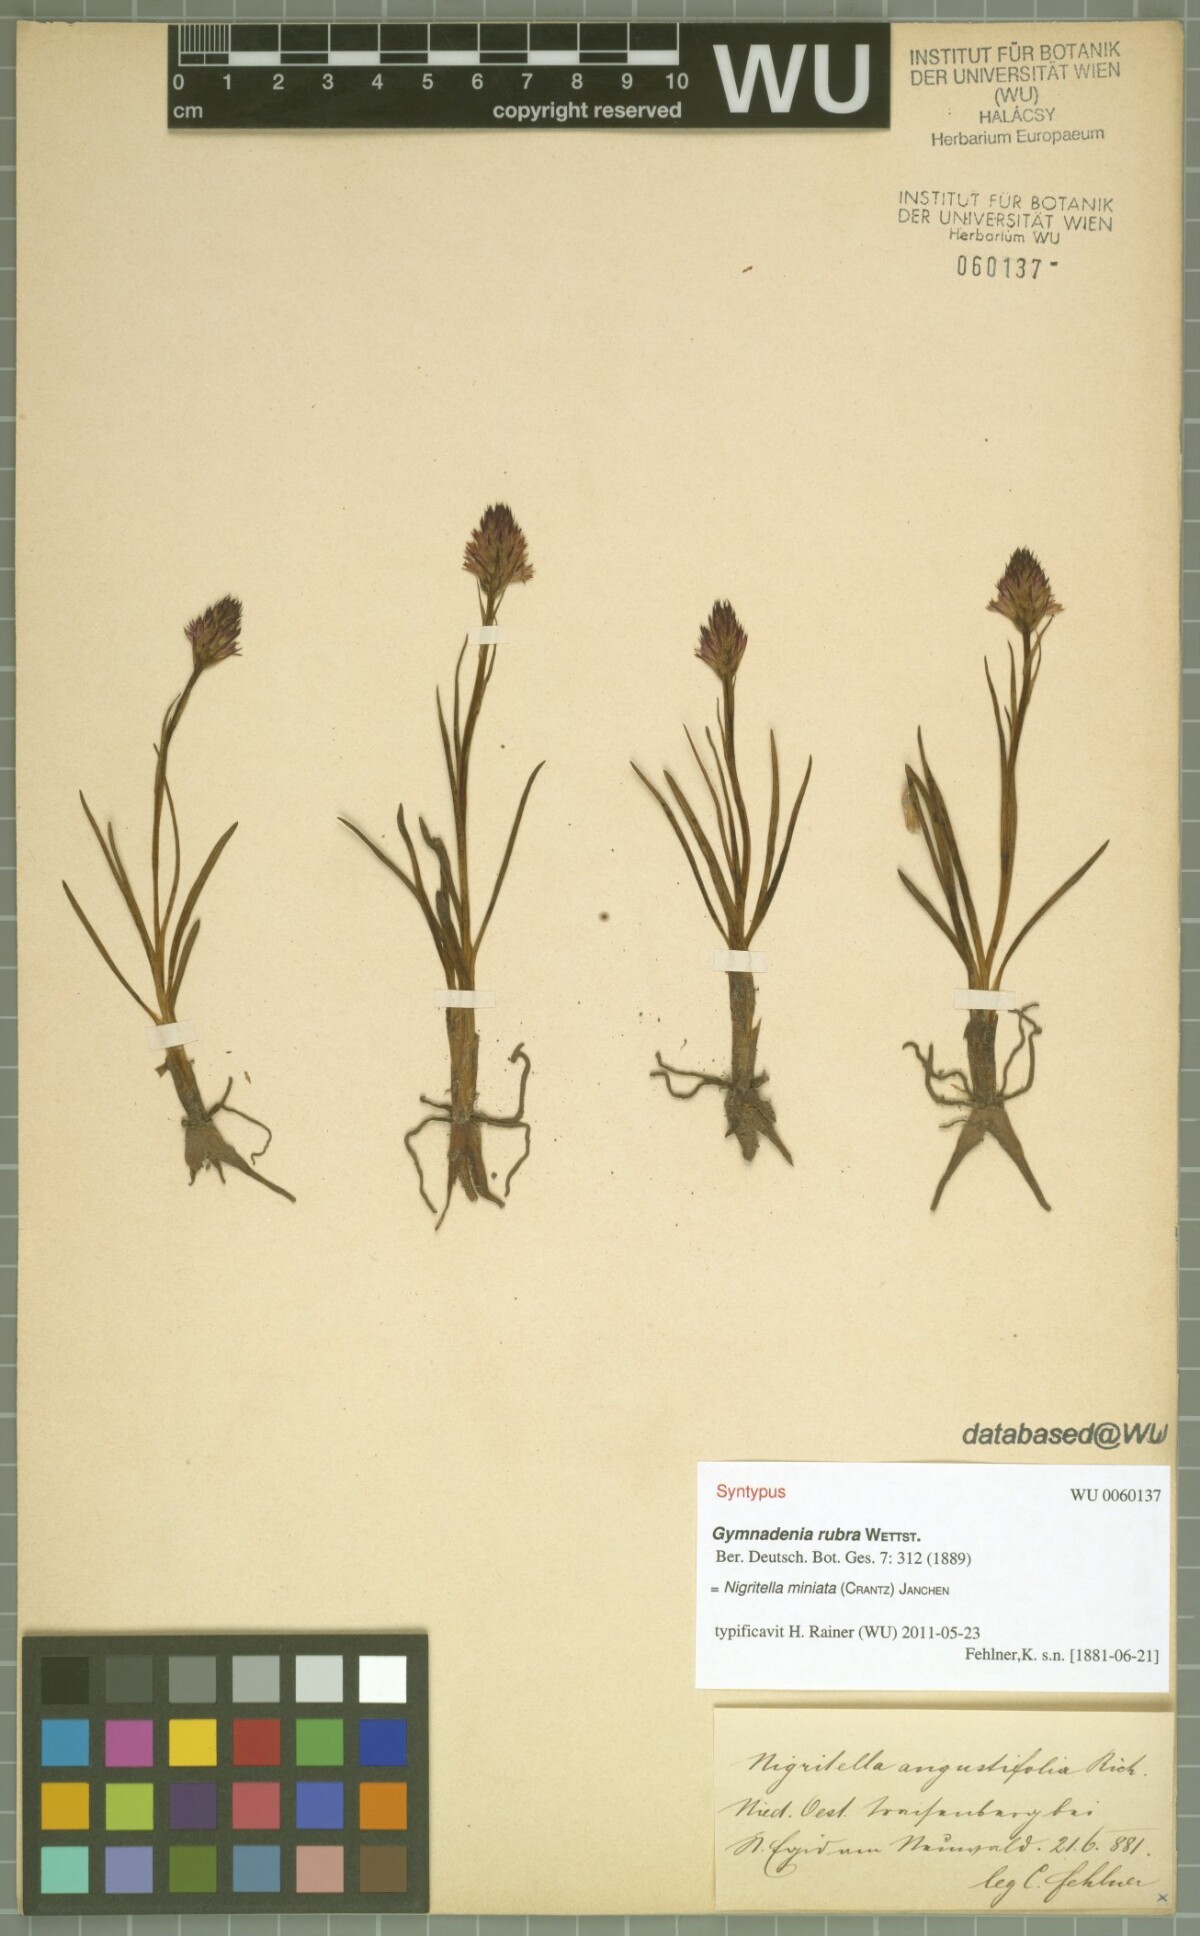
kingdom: Plantae
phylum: Tracheophyta
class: Liliopsida
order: Asparagales
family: Orchidaceae
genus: Gymnadenia
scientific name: Gymnadenia miniata
